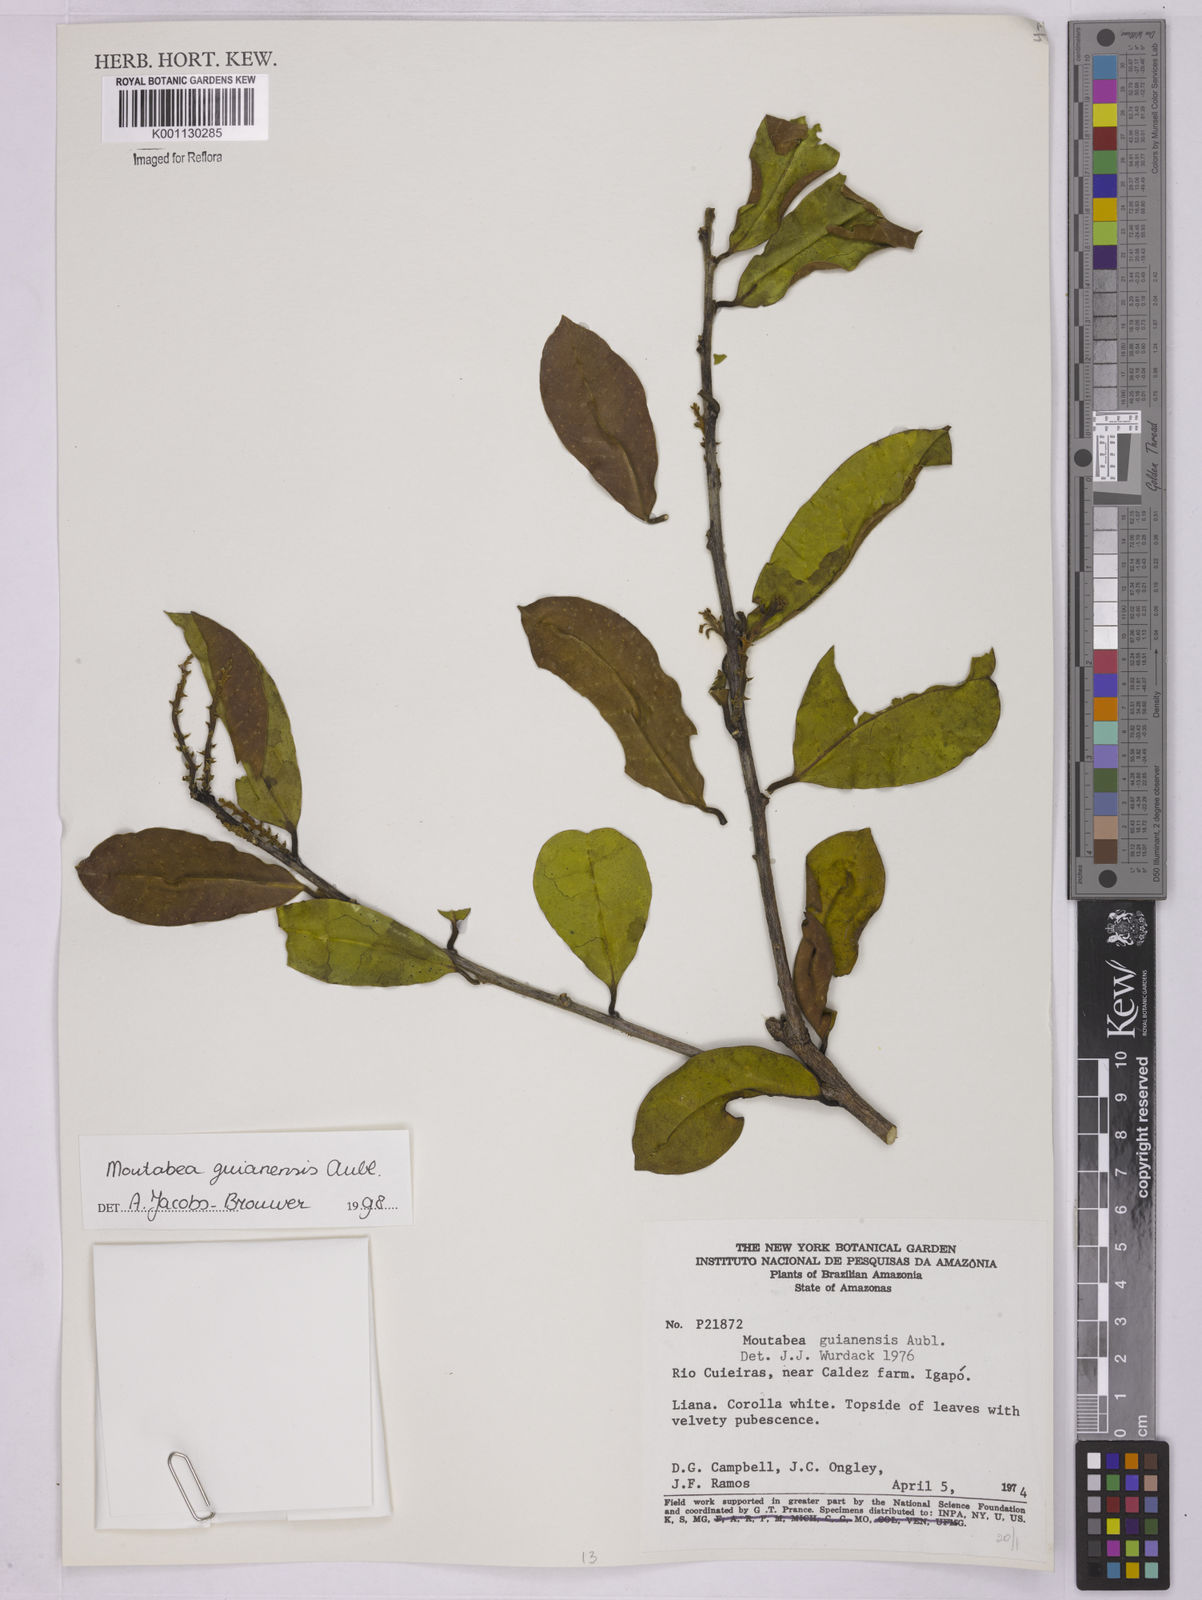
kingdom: Plantae
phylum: Tracheophyta
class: Magnoliopsida
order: Fabales
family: Polygalaceae
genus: Moutabea
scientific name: Moutabea guianensis
